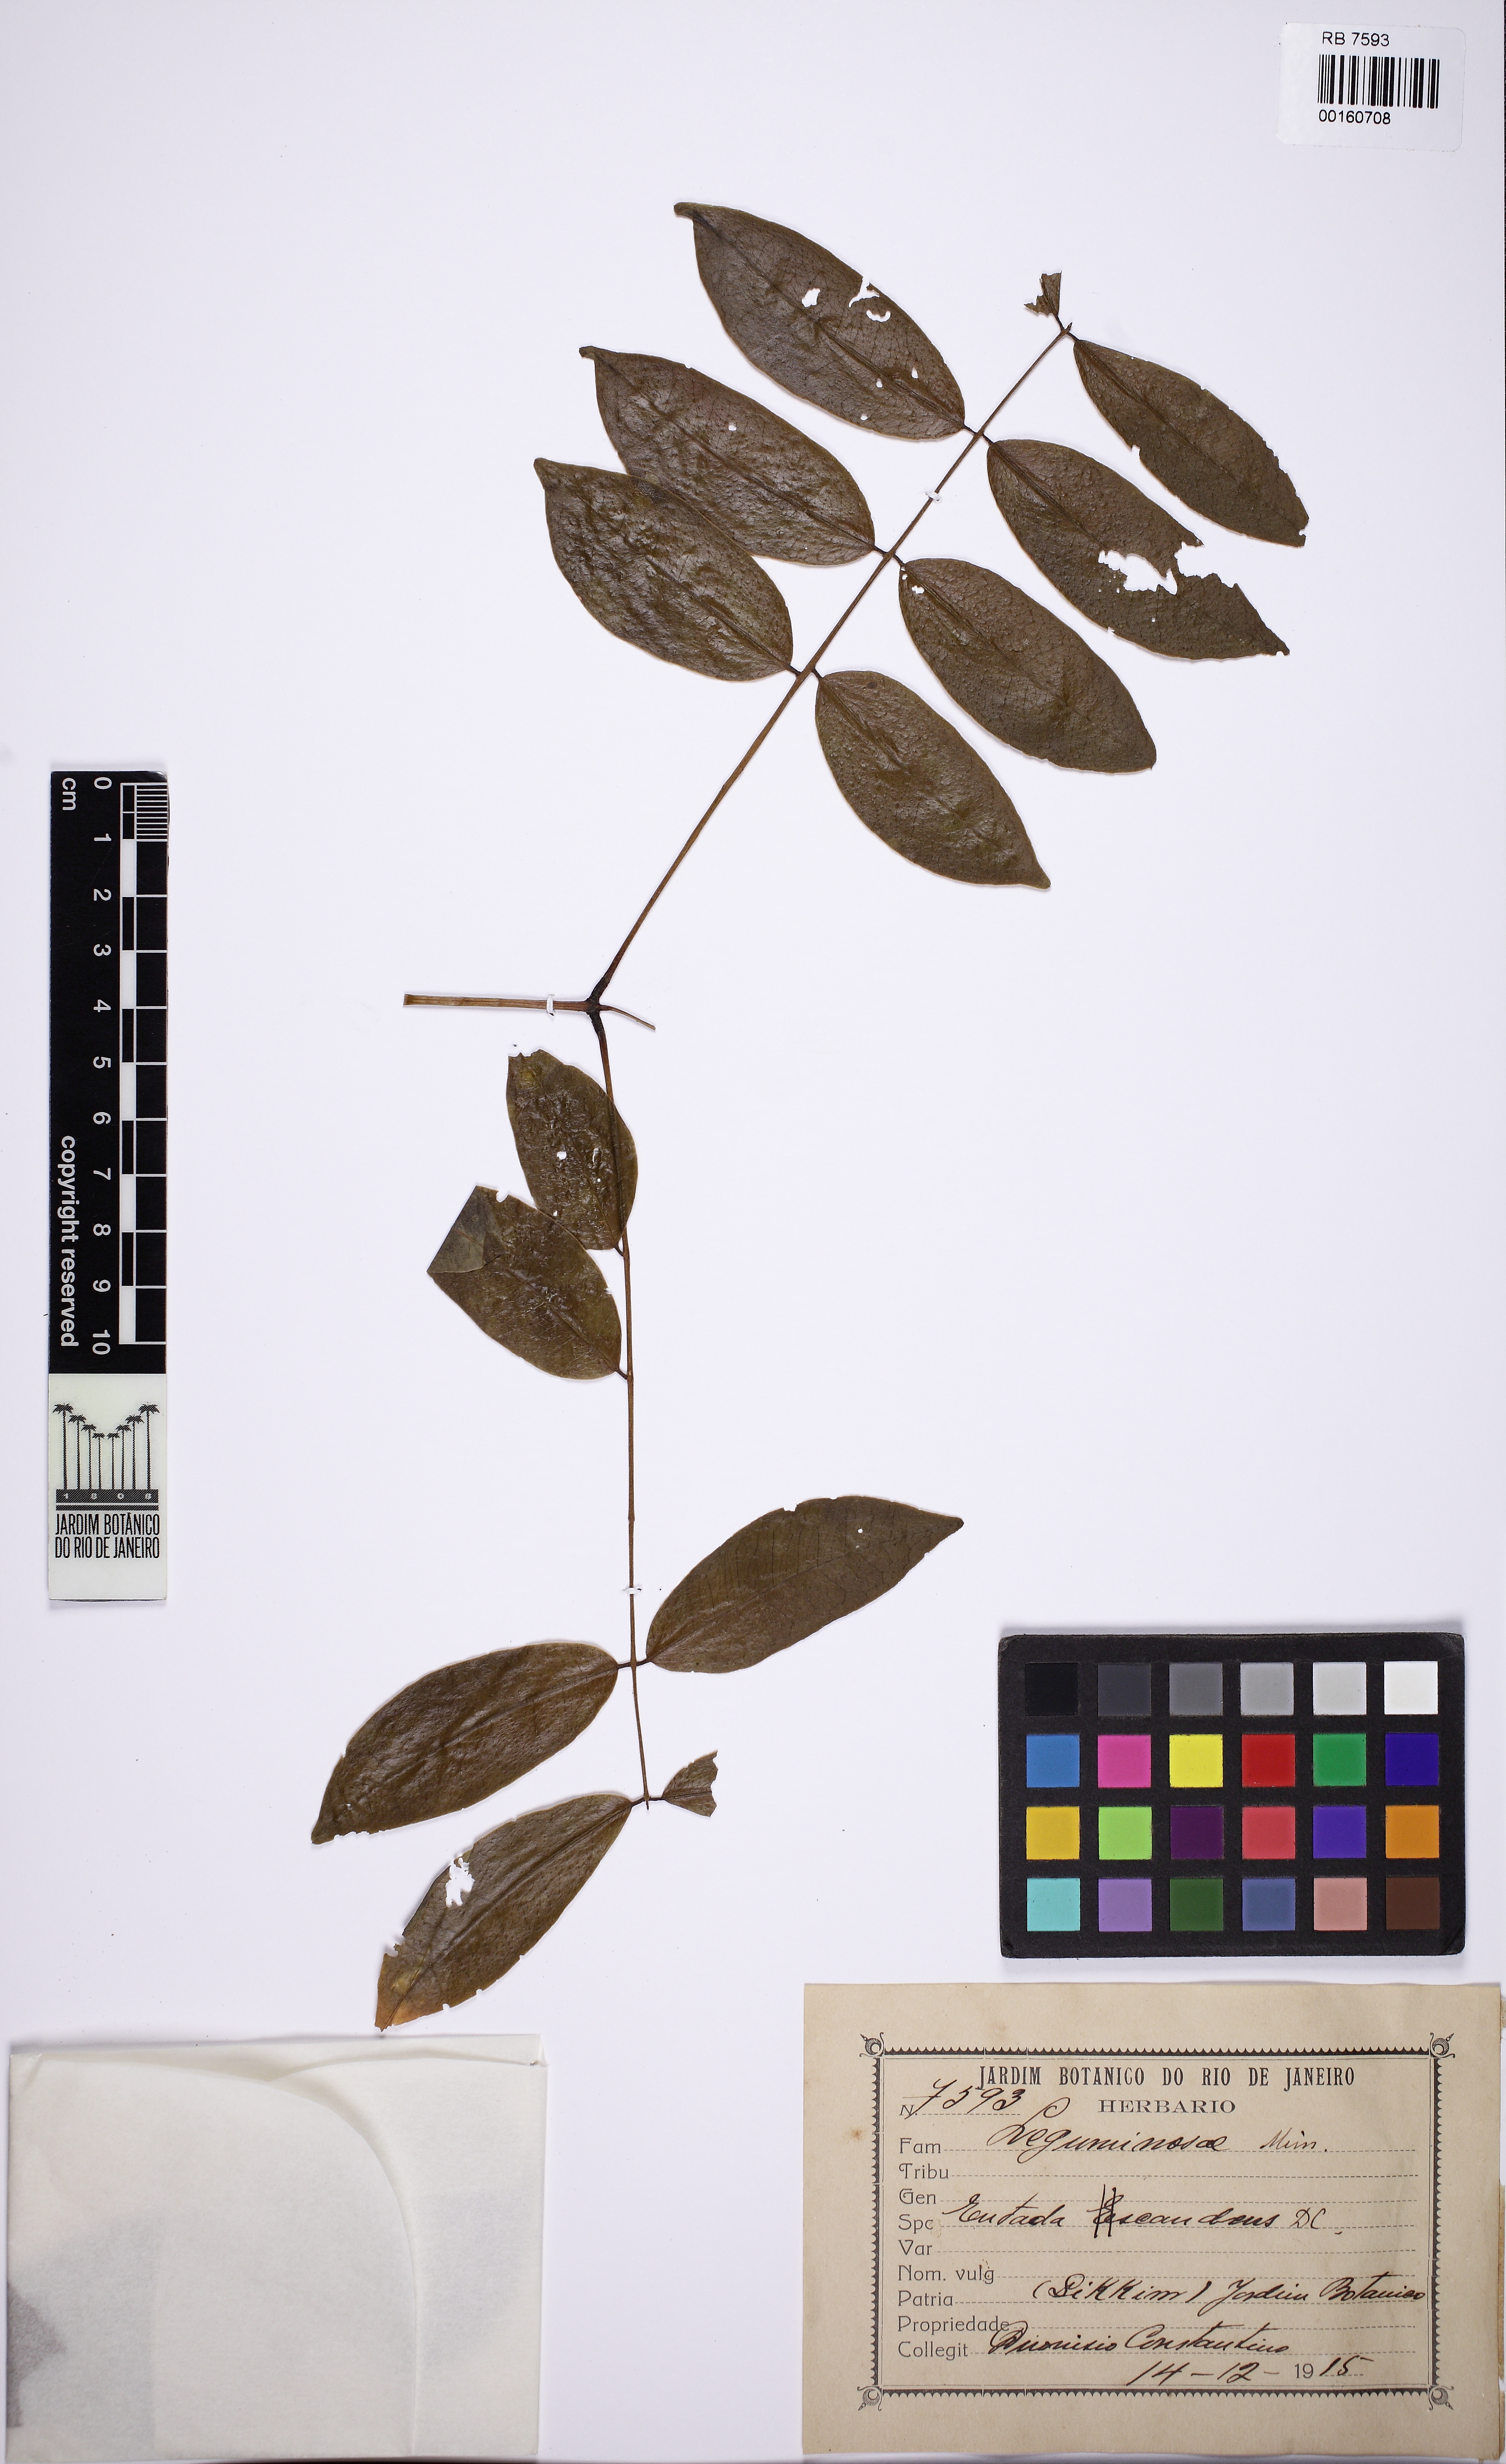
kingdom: Plantae
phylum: Tracheophyta
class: Magnoliopsida
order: Fabales
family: Fabaceae
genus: Entada
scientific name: Entada
